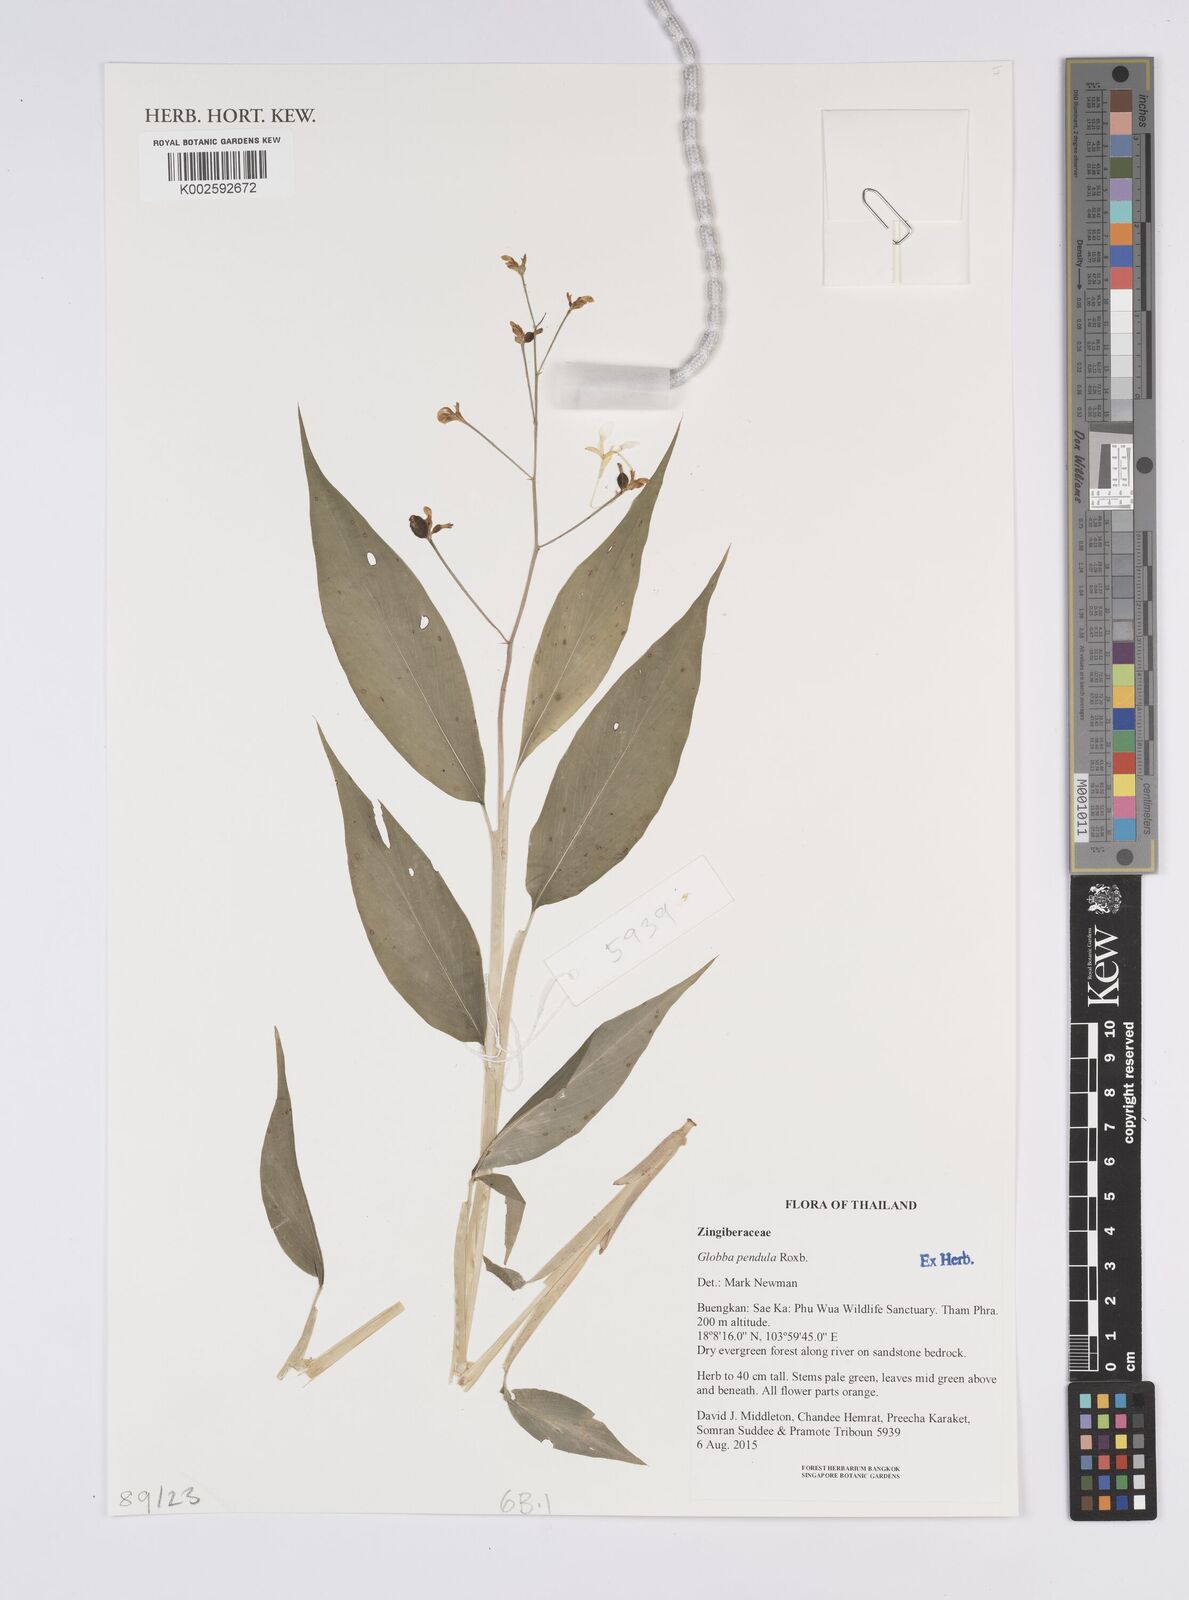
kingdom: Plantae
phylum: Tracheophyta
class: Liliopsida
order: Zingiberales
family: Zingiberaceae
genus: Globba
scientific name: Globba pendula
